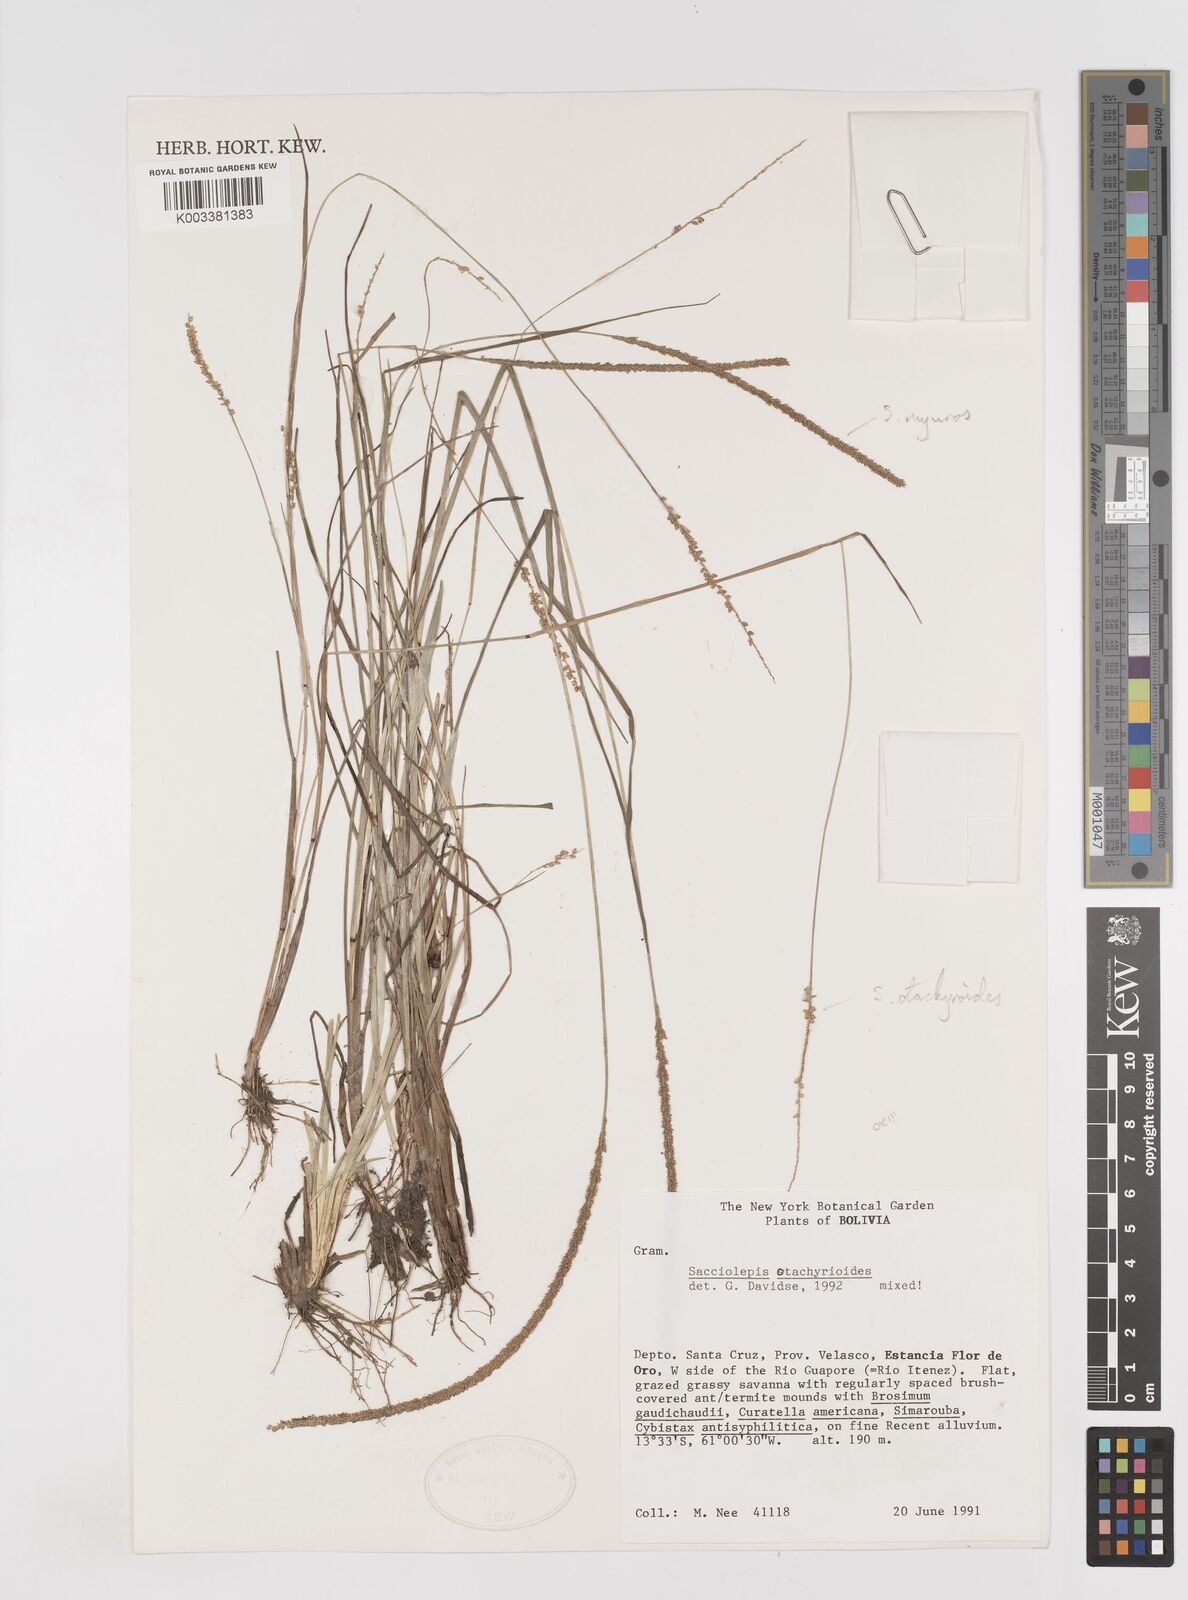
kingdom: Plantae
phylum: Tracheophyta
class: Liliopsida
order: Poales
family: Poaceae
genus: Sacciolepis
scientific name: Sacciolepis otachyrioides
